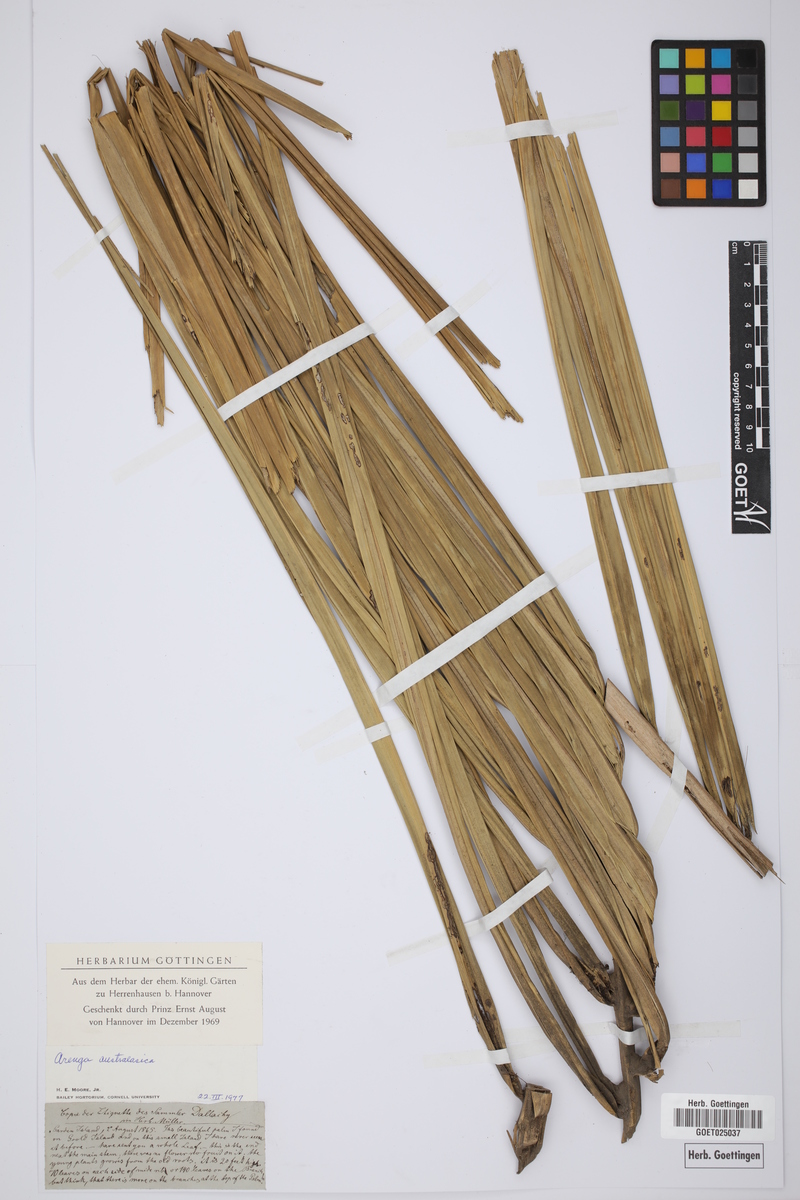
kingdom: Plantae
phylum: Tracheophyta
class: Liliopsida
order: Arecales
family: Arecaceae
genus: Arenga
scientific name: Arenga australasica
